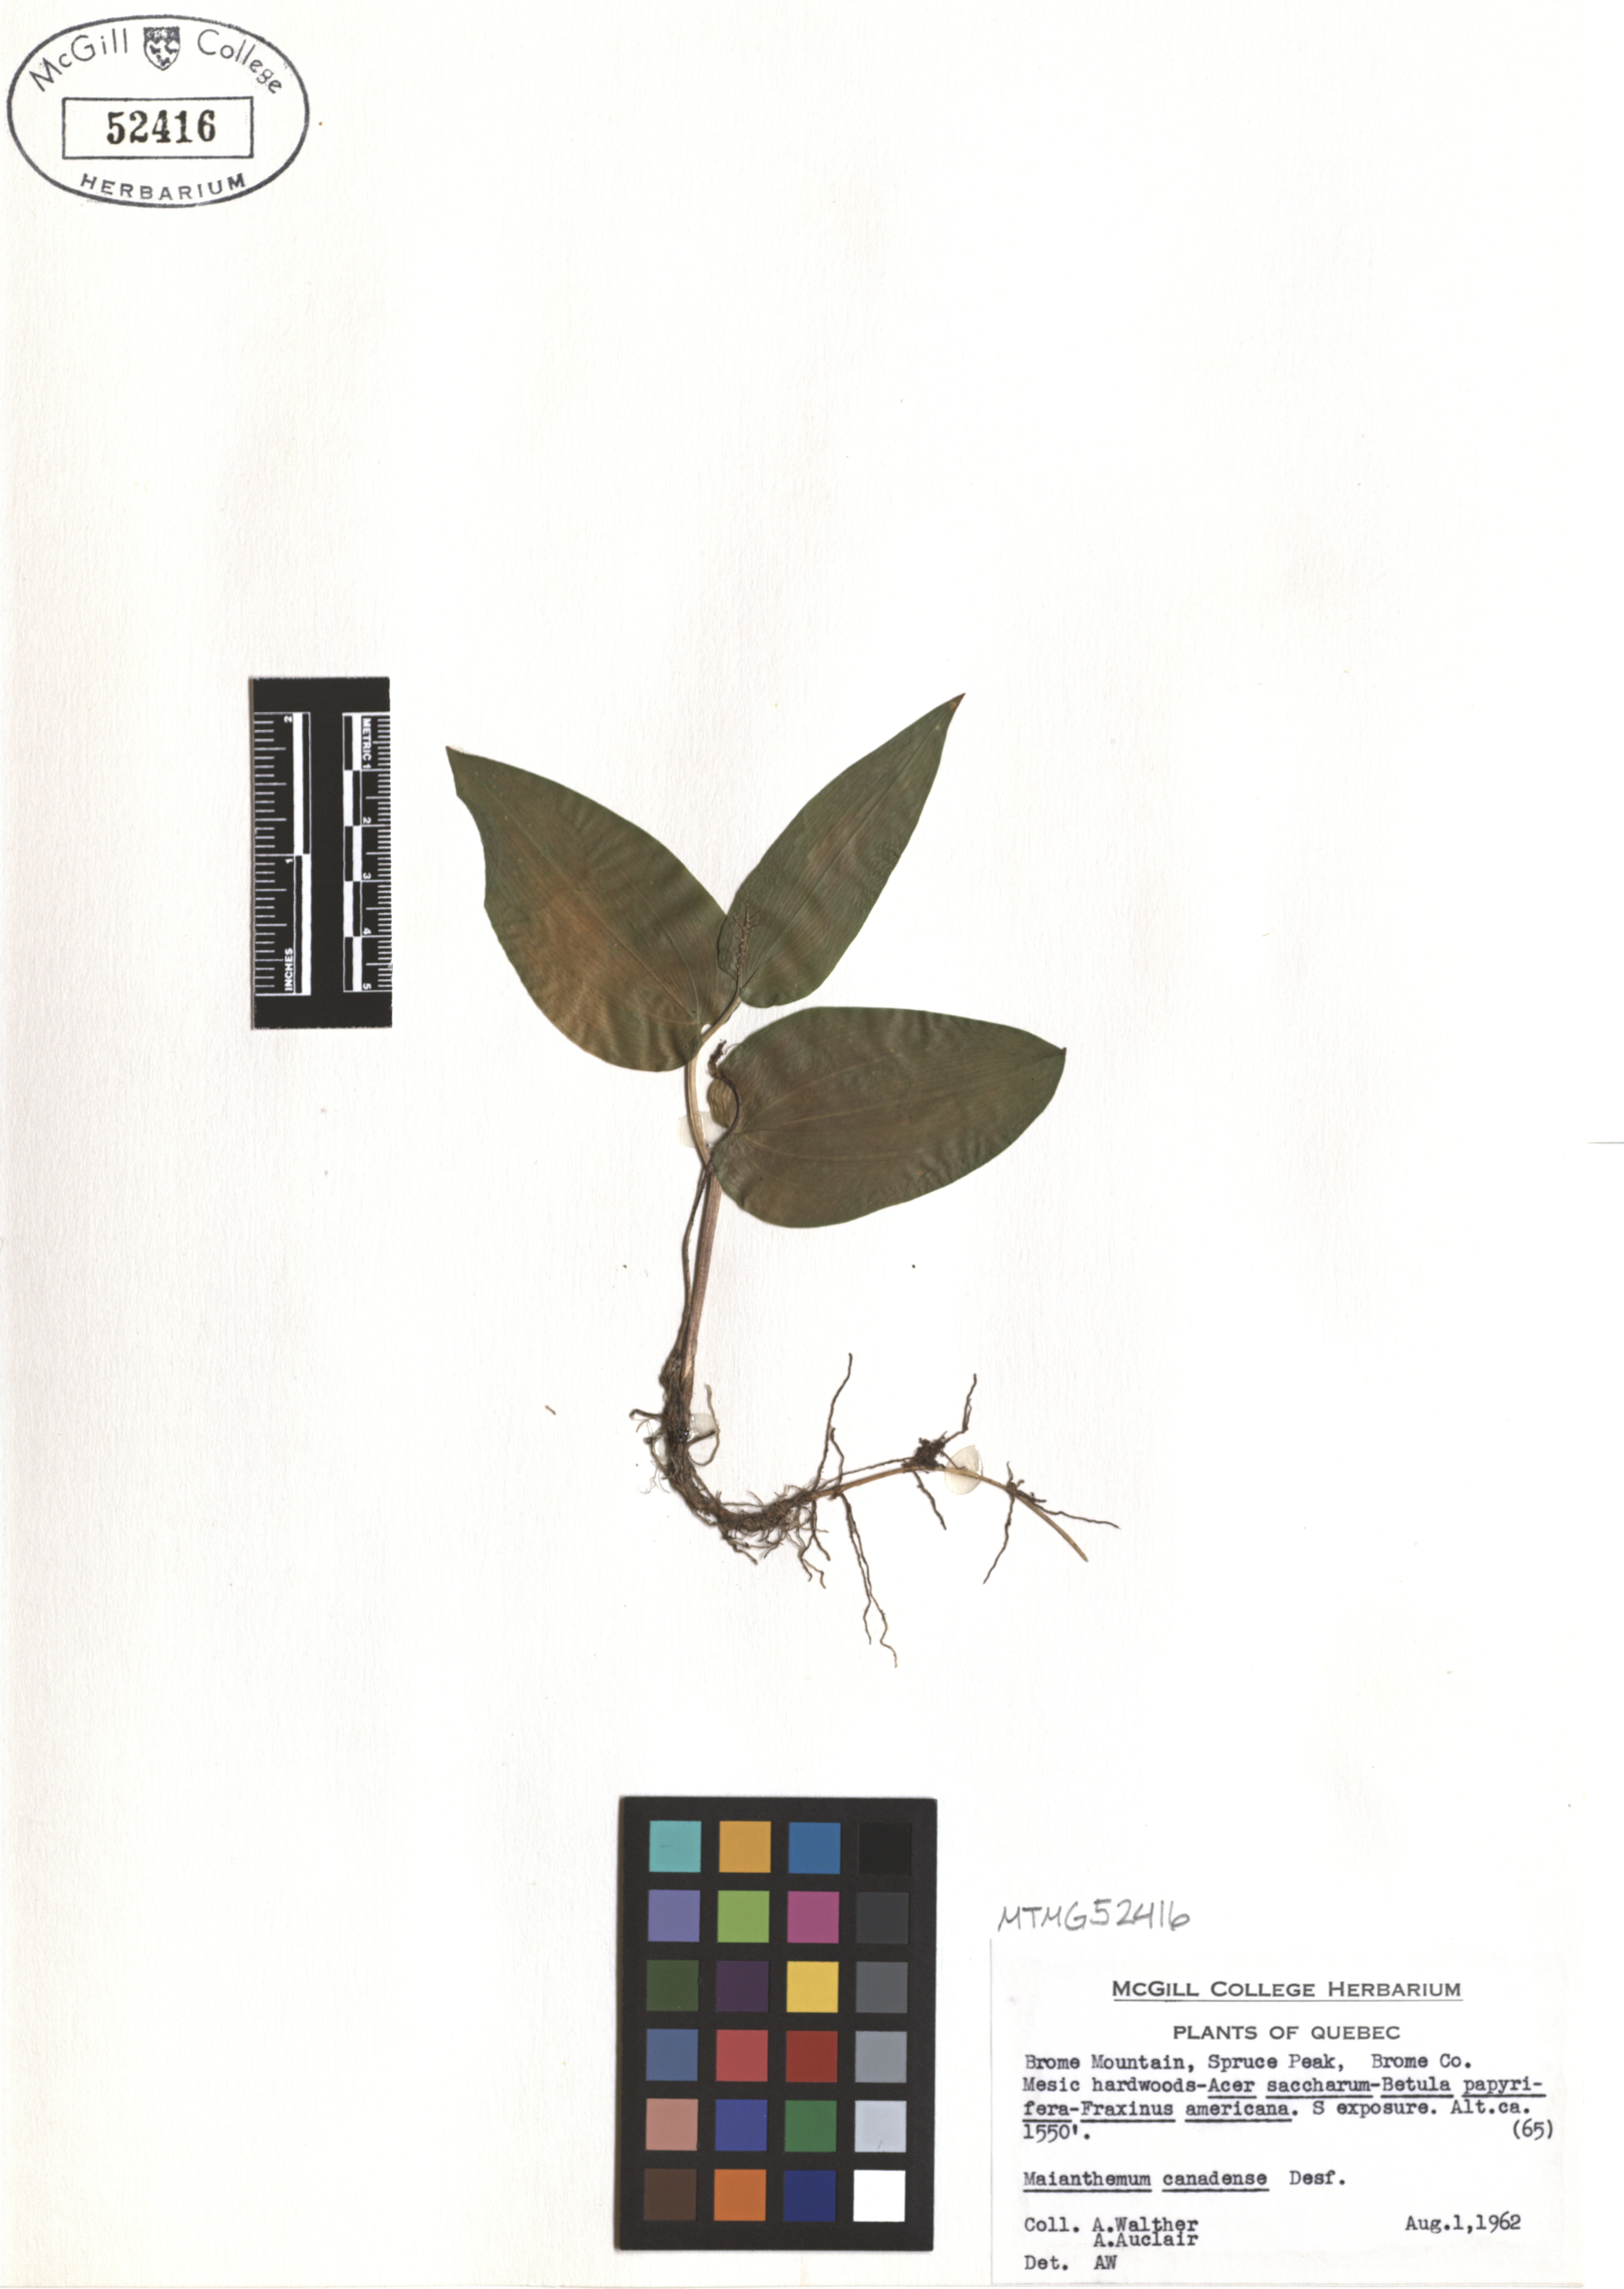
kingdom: Plantae
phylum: Tracheophyta
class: Liliopsida
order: Asparagales
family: Asparagaceae
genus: Maianthemum
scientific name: Maianthemum canadense
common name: False lily-of-the-valley
